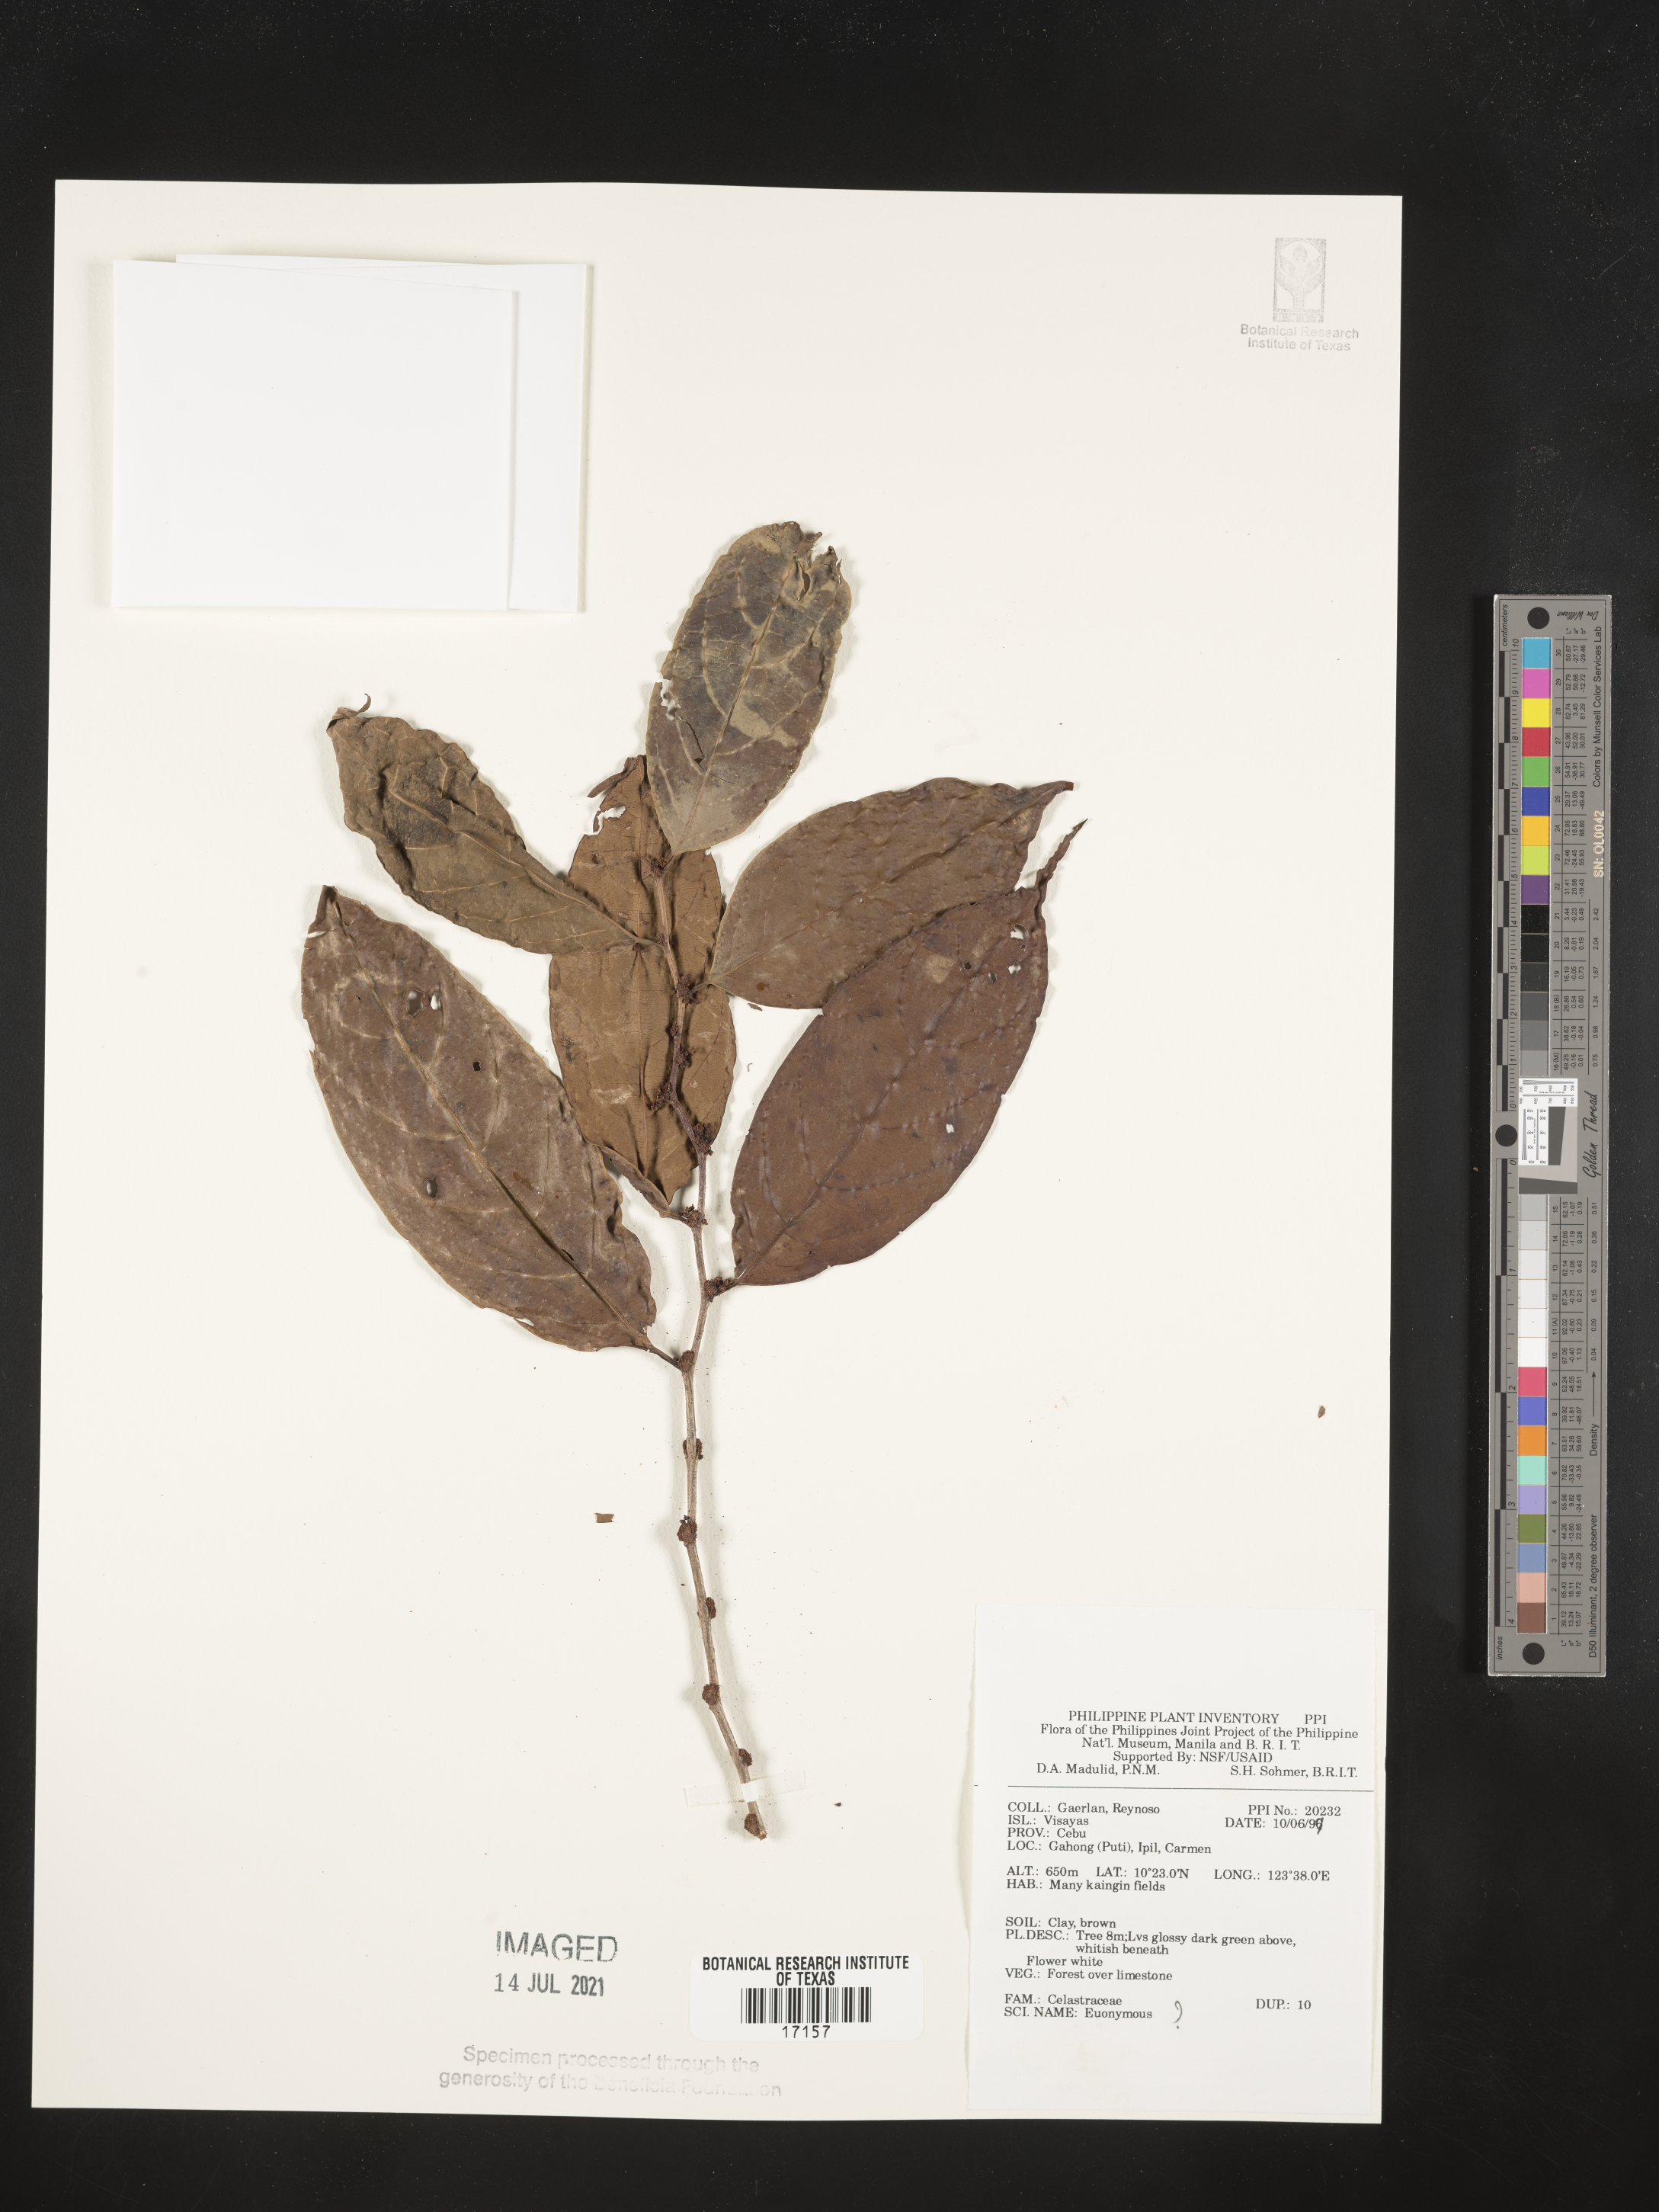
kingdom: Plantae
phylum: Tracheophyta
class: Magnoliopsida
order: Celastrales
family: Celastraceae
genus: Euonymus
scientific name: Euonymus
